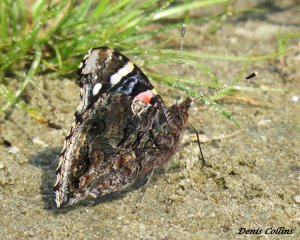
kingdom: Animalia
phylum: Arthropoda
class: Insecta
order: Lepidoptera
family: Nymphalidae
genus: Vanessa
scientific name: Vanessa atalanta
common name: Red Admiral
